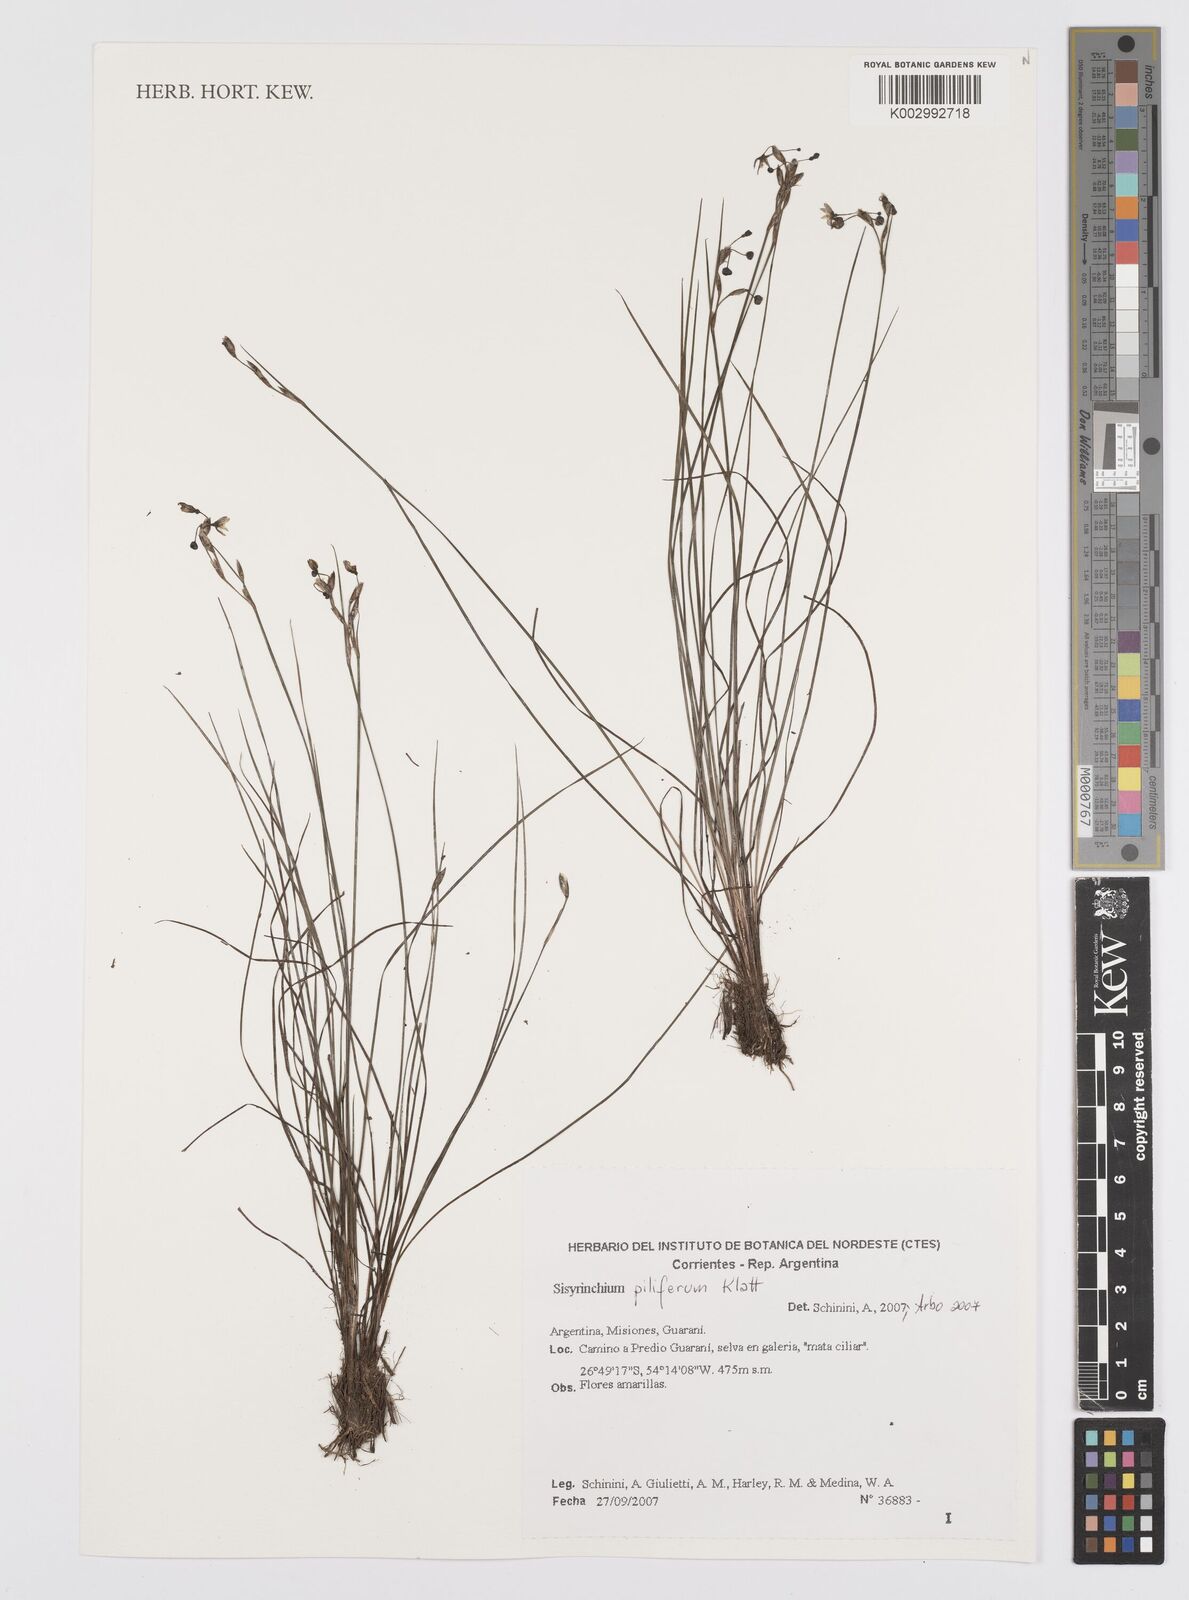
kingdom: Plantae
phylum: Tracheophyta
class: Liliopsida
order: Asparagales
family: Iridaceae
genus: Sisyrinchium
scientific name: Sisyrinchium commutatum
